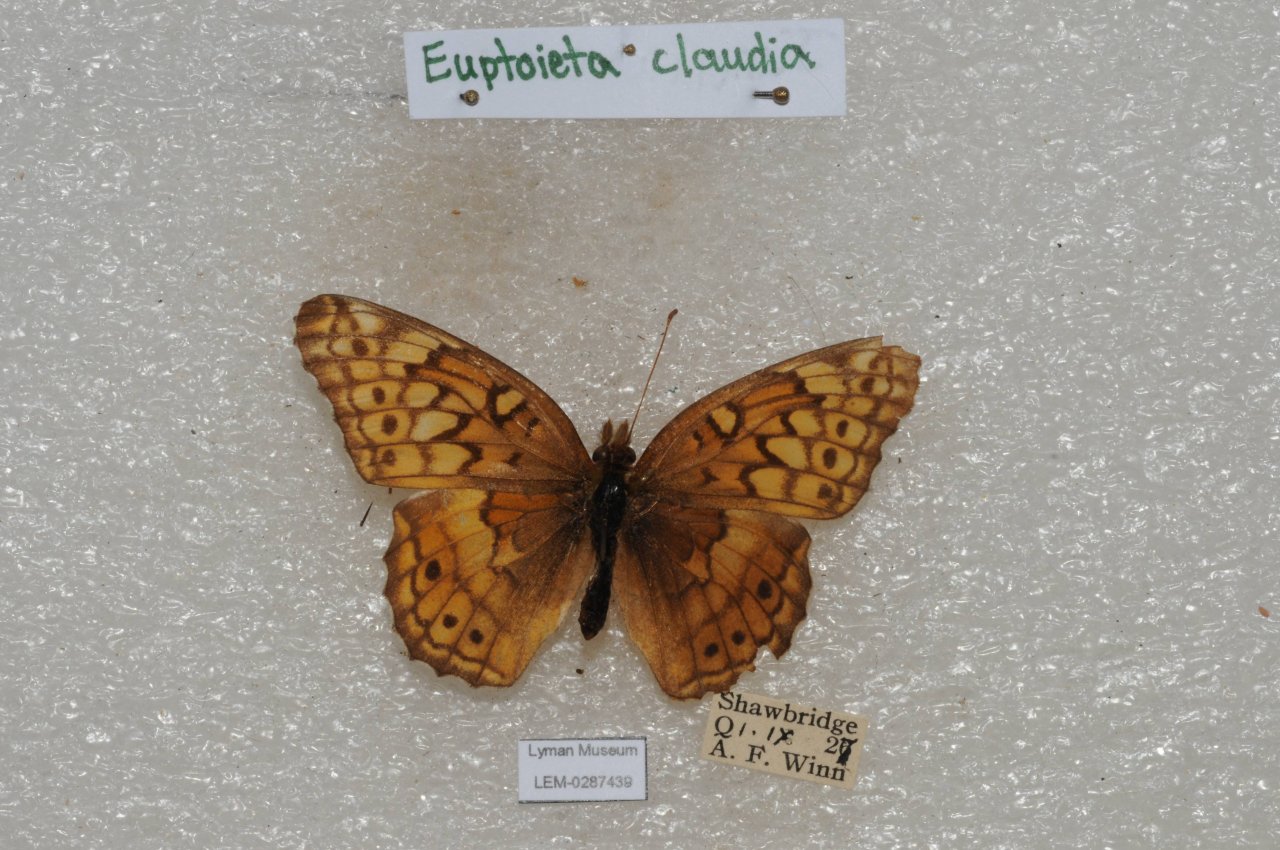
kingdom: Animalia
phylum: Arthropoda
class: Insecta
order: Lepidoptera
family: Nymphalidae
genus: Euptoieta
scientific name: Euptoieta claudia
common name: Variegated Fritillary
